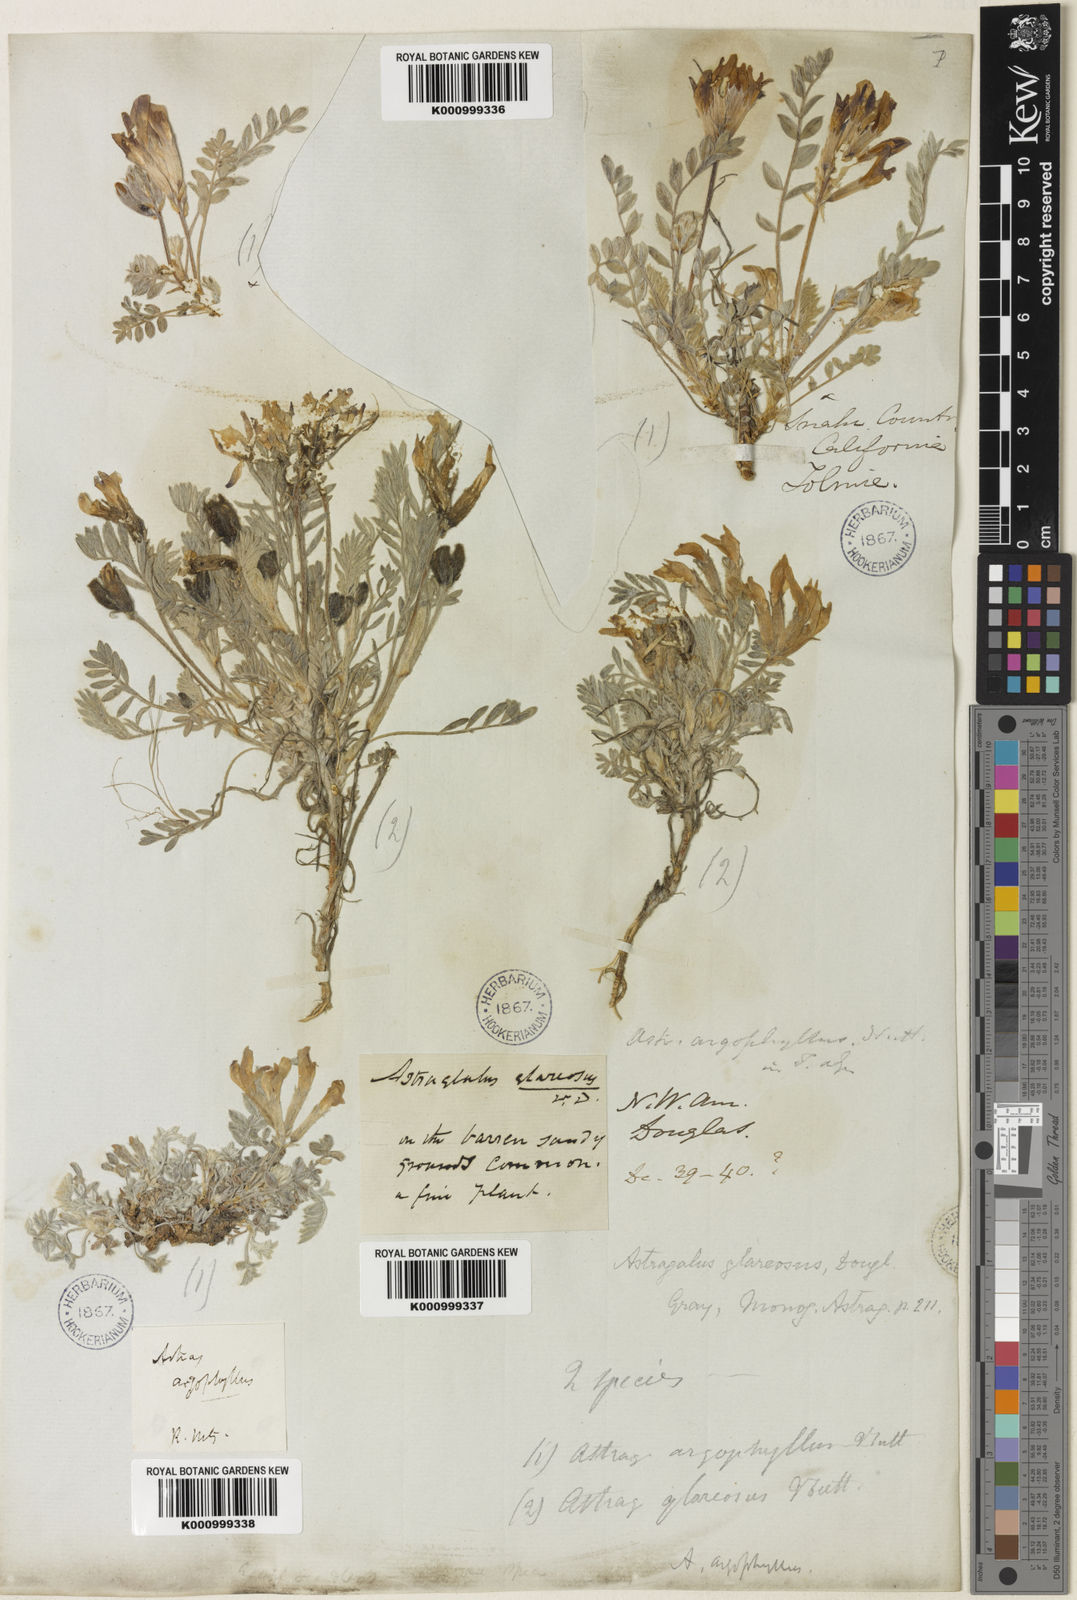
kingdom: Plantae
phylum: Tracheophyta
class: Magnoliopsida
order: Fabales
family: Fabaceae
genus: Astragalus
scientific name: Astragalus purshii
